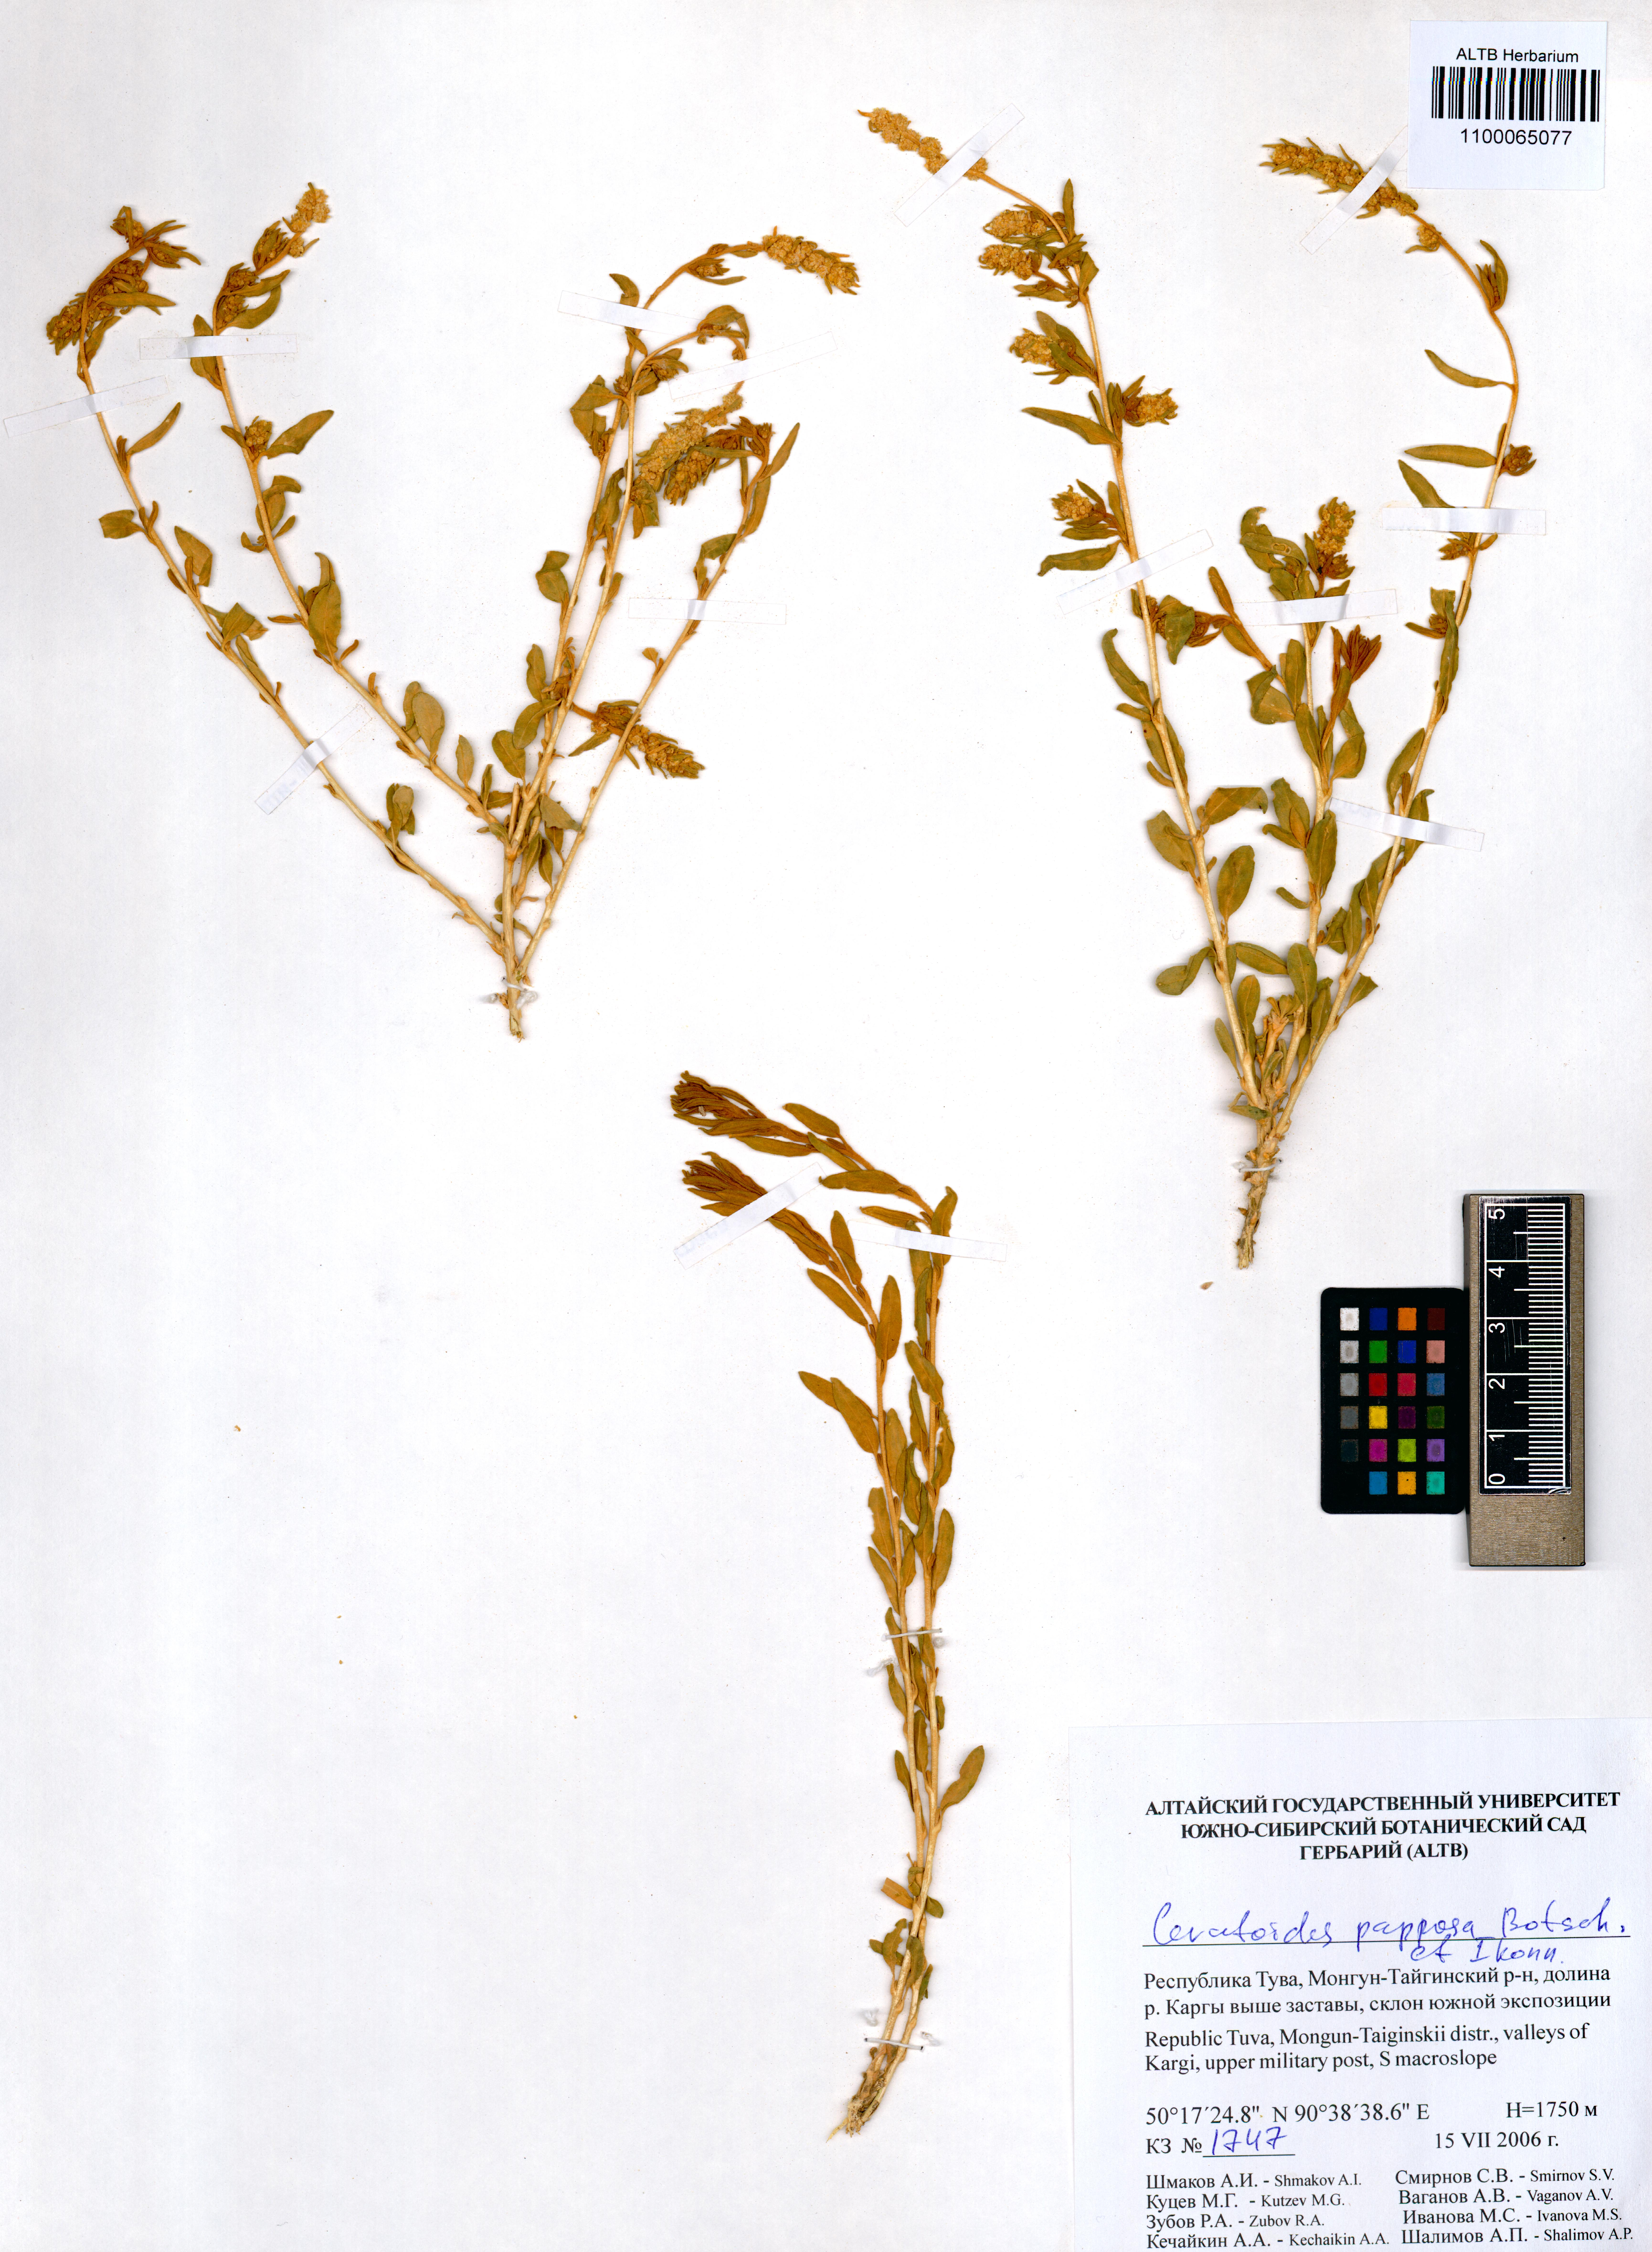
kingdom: Plantae
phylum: Tracheophyta
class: Magnoliopsida
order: Caryophyllales
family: Amaranthaceae
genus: Krascheninnikovia
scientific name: Krascheninnikovia ceratoides
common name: Pamirian winterfat
